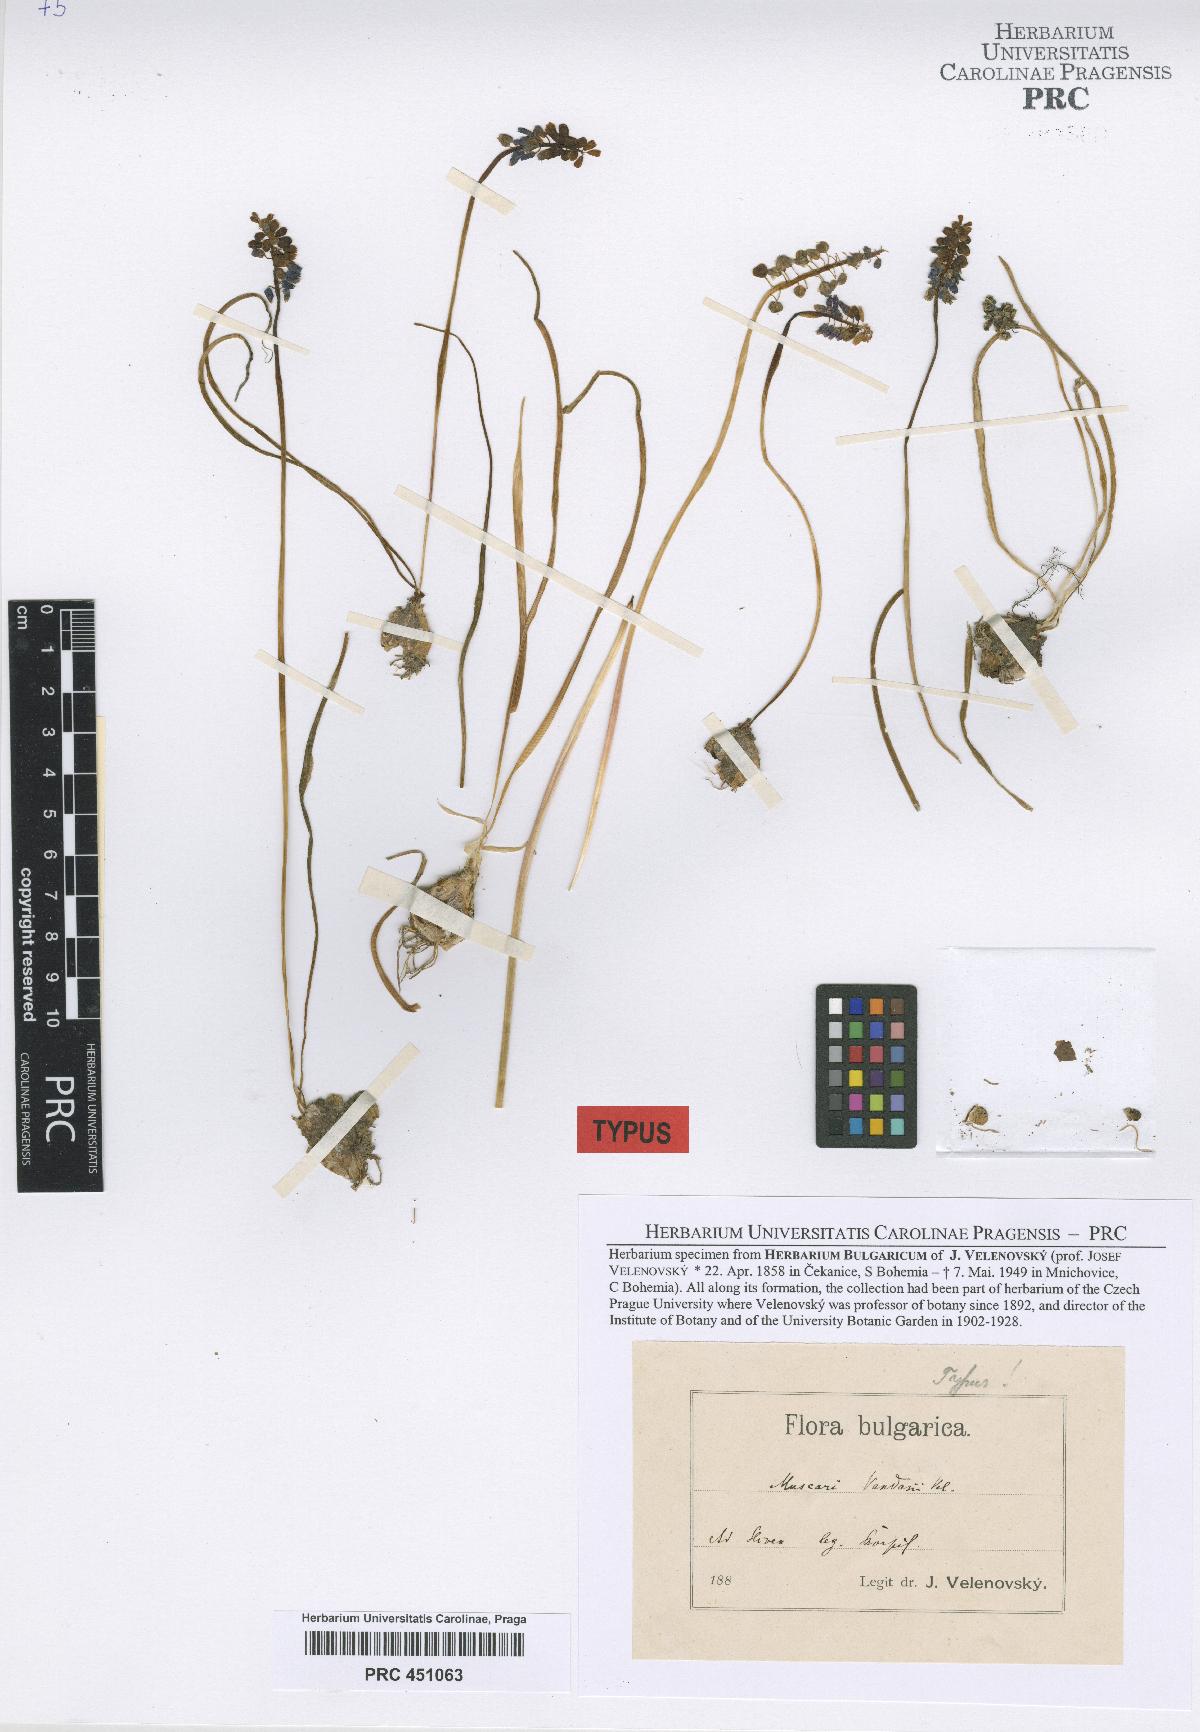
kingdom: Plantae
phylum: Tracheophyta
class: Liliopsida
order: Asparagales
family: Asparagaceae
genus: Muscari
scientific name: Muscari neglectum
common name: Grape-hyacinth
